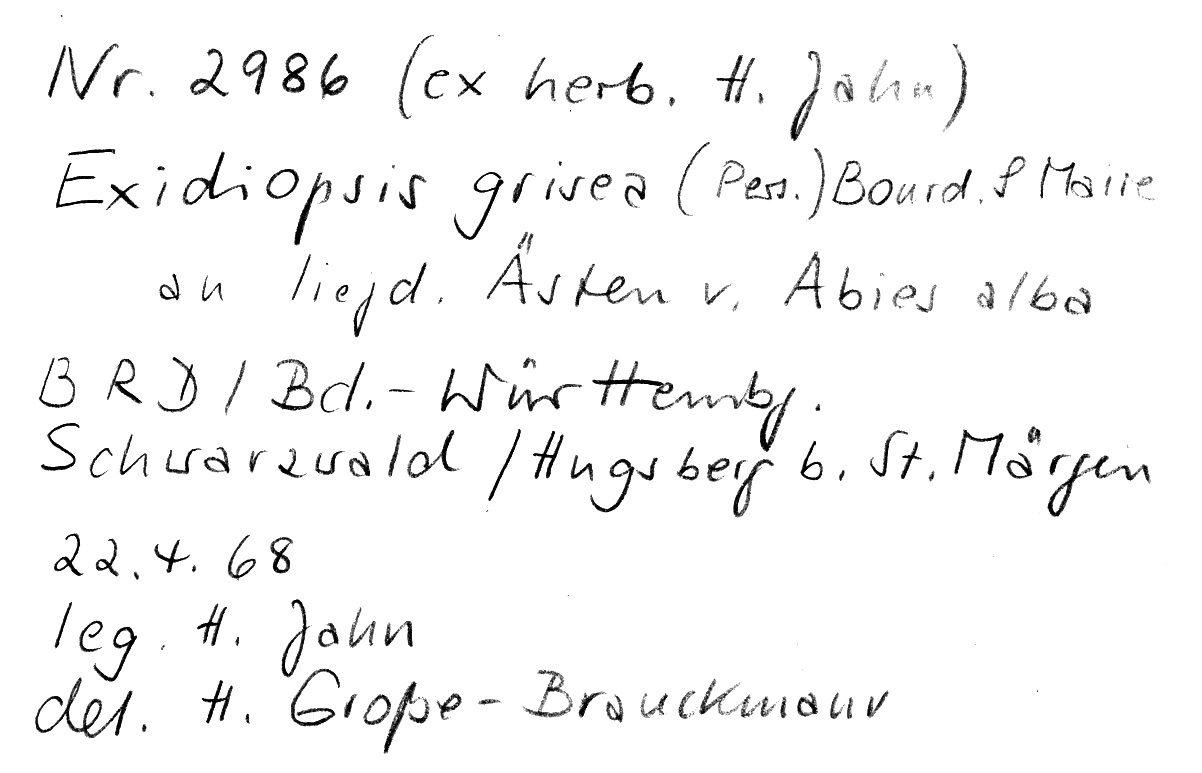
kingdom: Plantae
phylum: Tracheophyta
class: Pinopsida
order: Pinales
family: Pinaceae
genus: Abies
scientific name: Abies alba
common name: Silver fir
